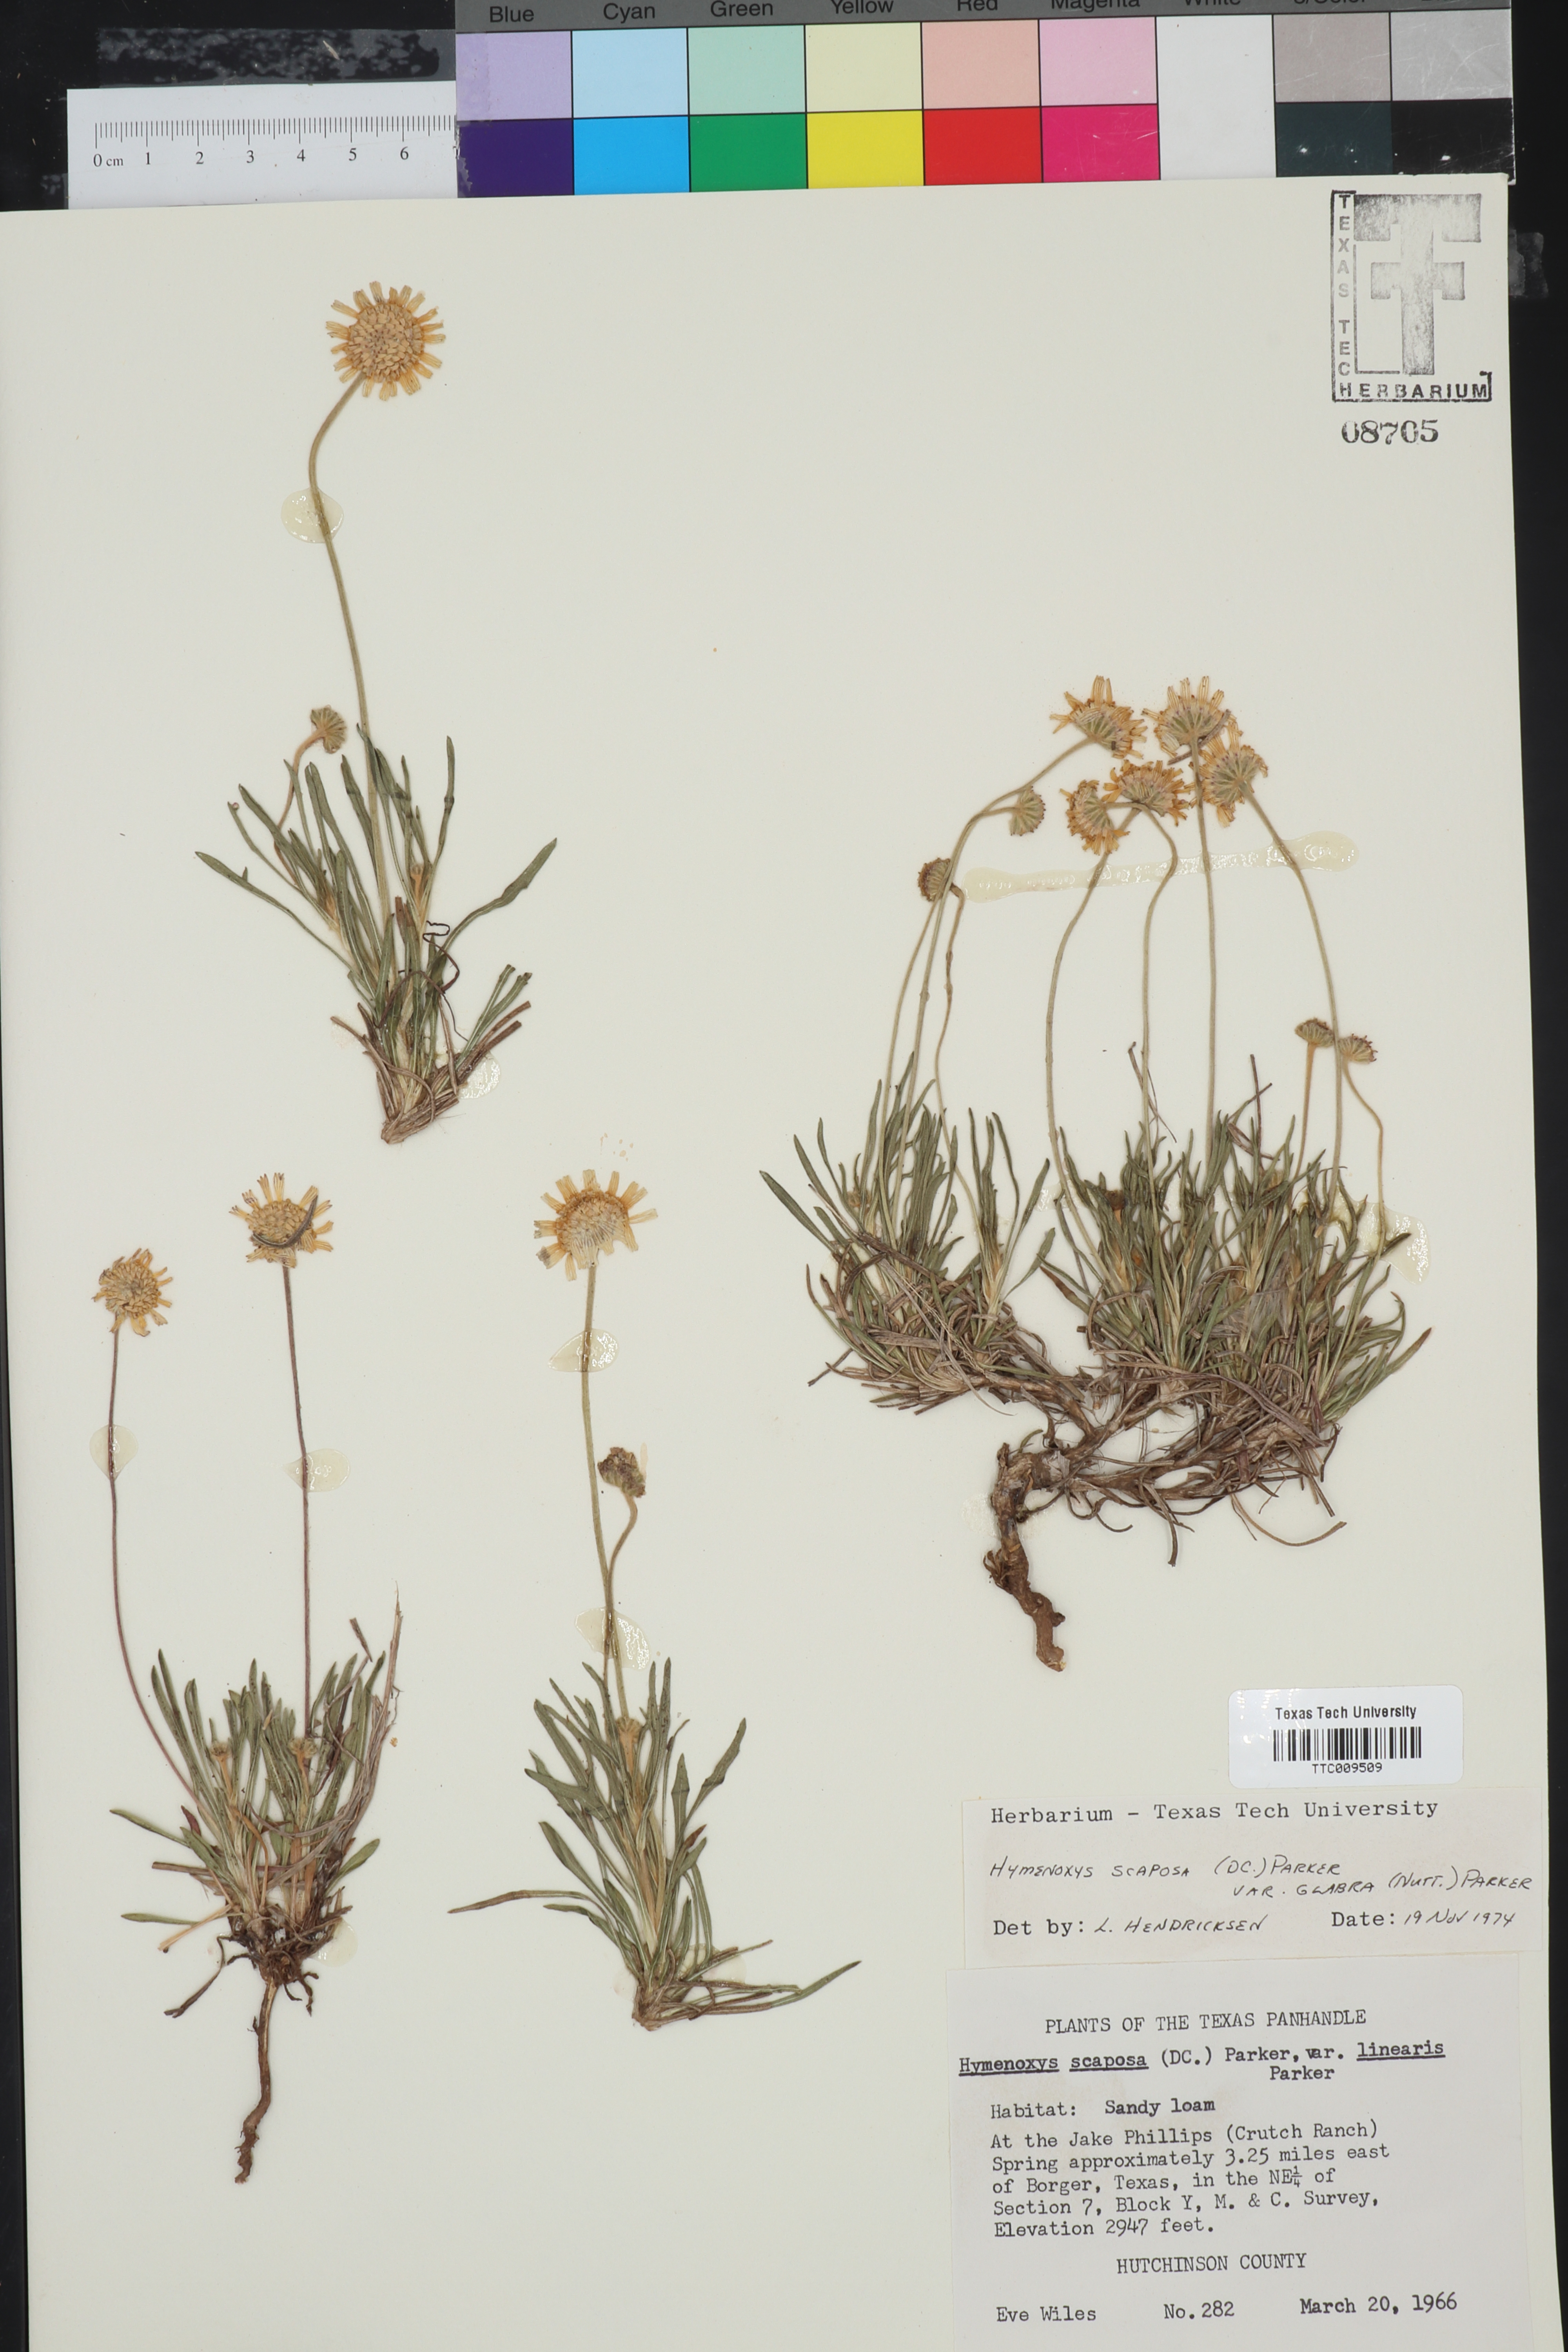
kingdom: Plantae
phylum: Tracheophyta
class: Magnoliopsida
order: Asterales
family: Asteraceae
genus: Tetraneuris
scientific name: Tetraneuris scaposa
